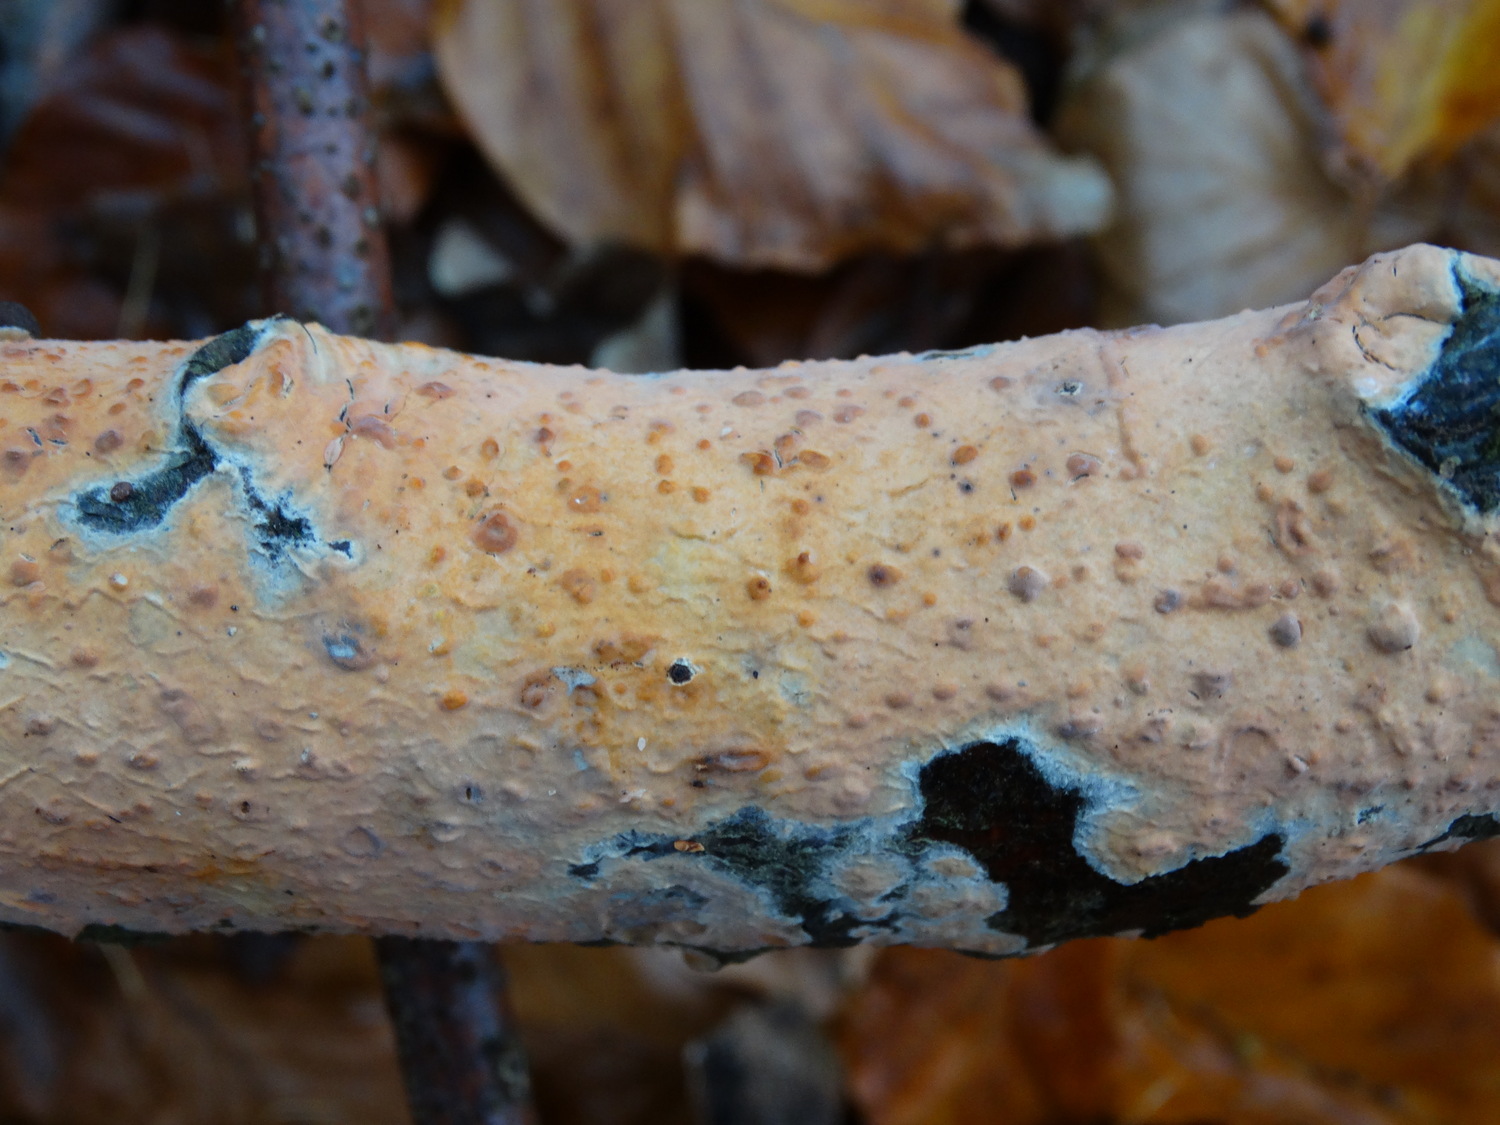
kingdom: Fungi
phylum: Basidiomycota
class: Agaricomycetes
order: Russulales
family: Peniophoraceae
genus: Peniophora
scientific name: Peniophora incarnata
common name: laksefarvet voksskind
